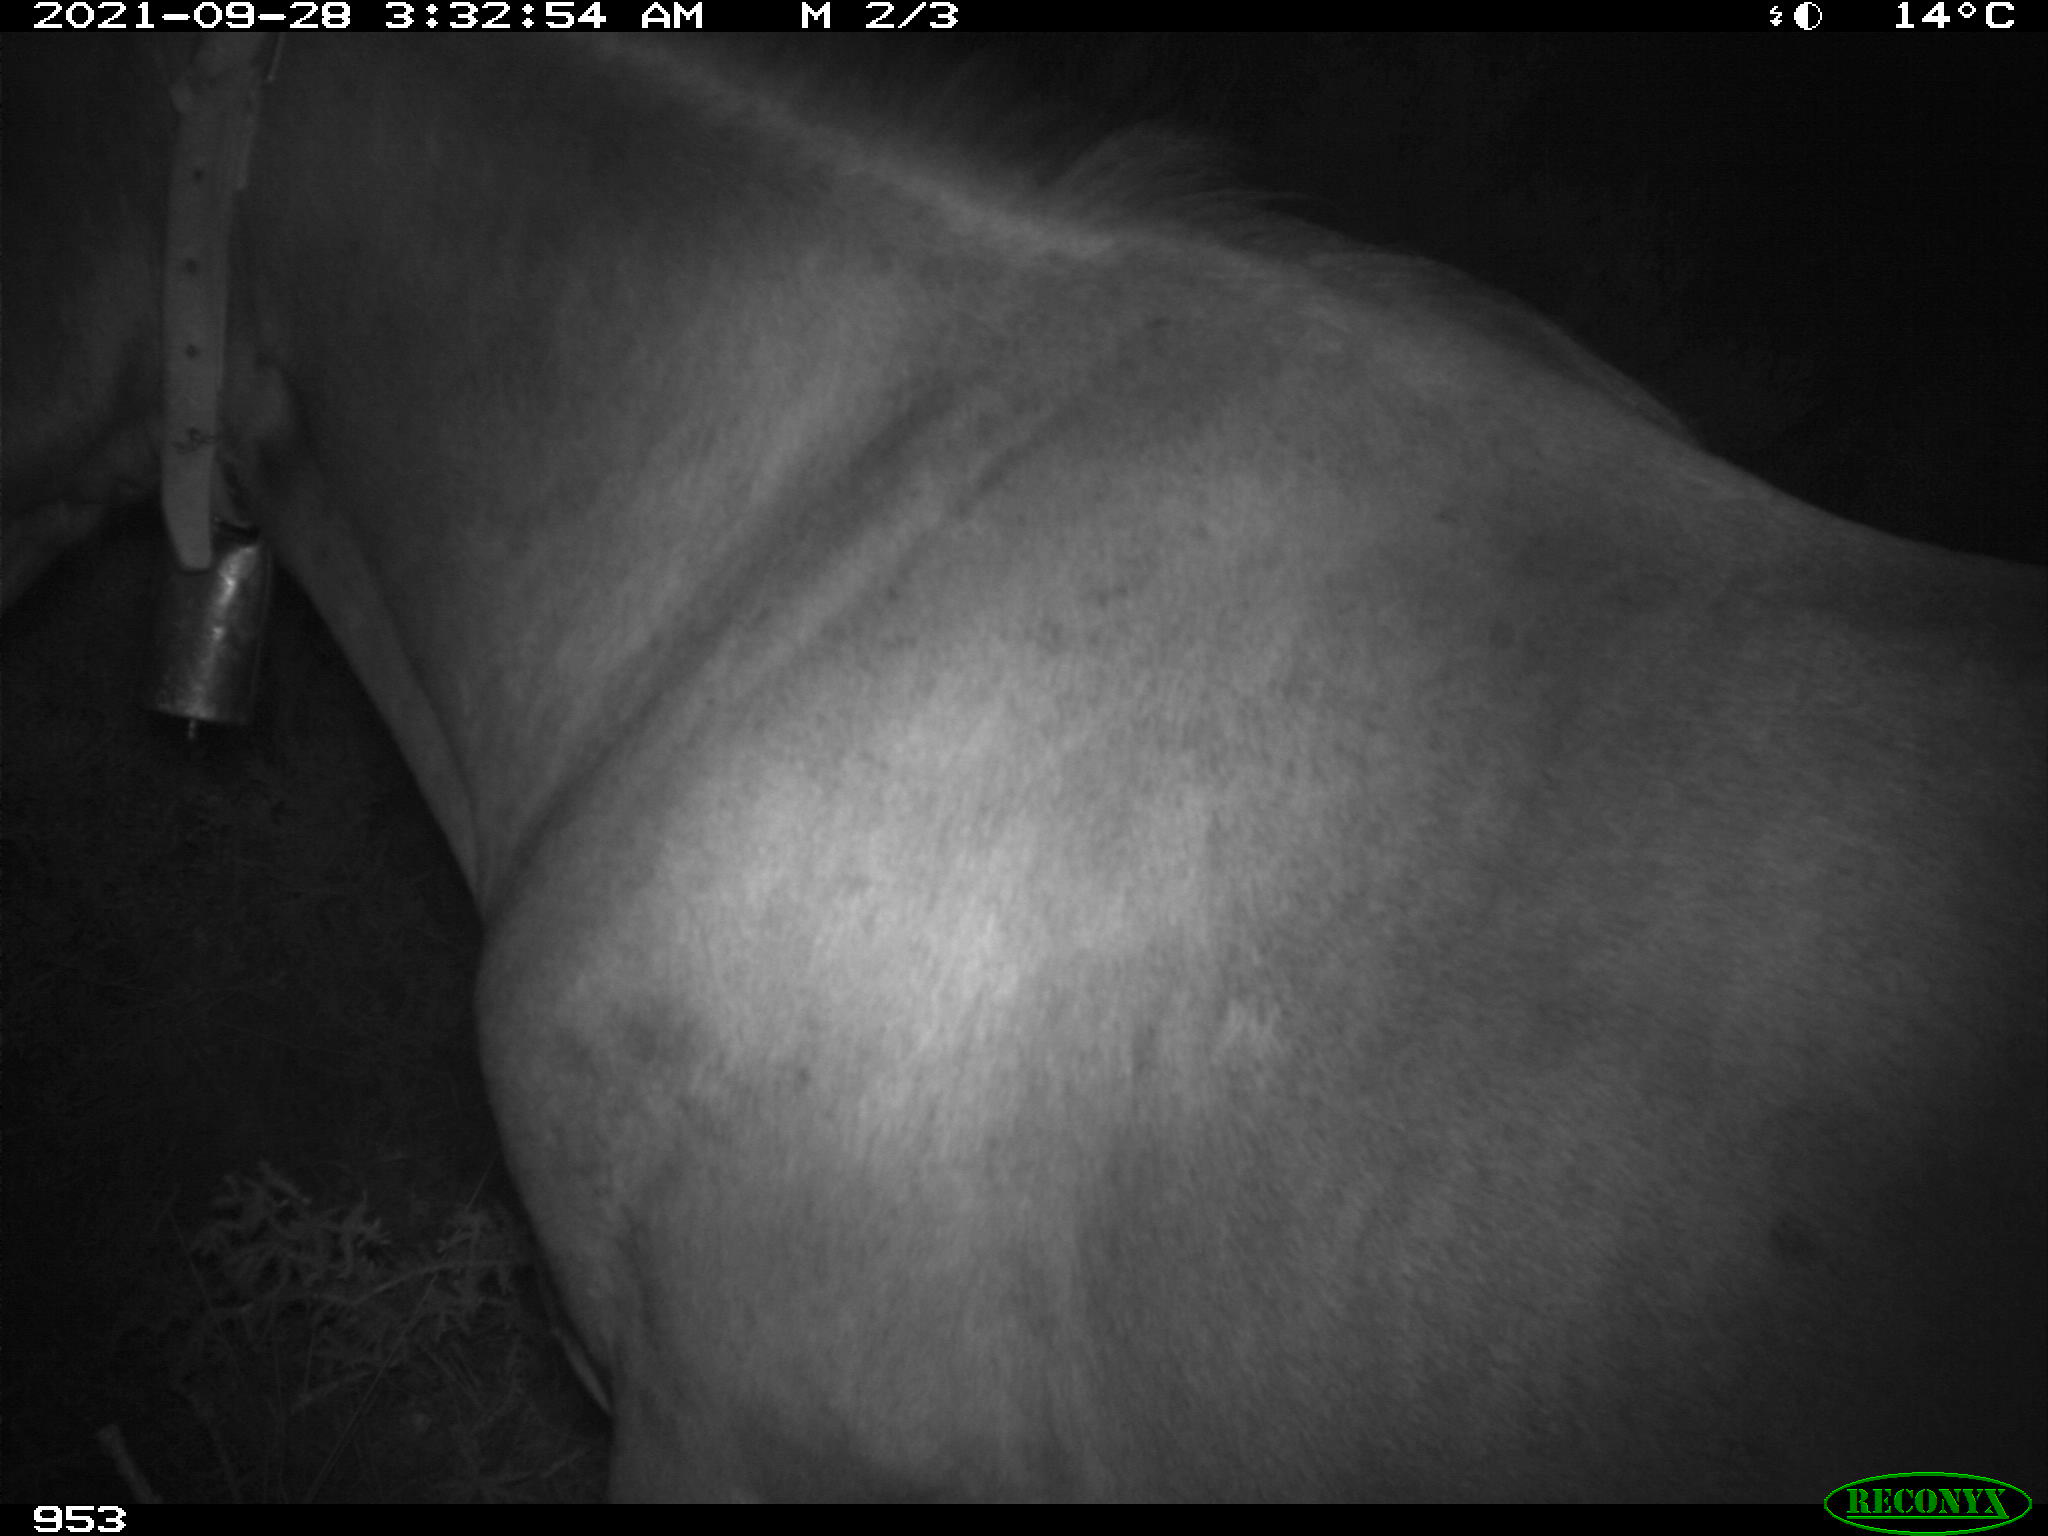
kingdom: Animalia
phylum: Chordata
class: Mammalia
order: Perissodactyla
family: Equidae
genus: Equus
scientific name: Equus caballus
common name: Horse
